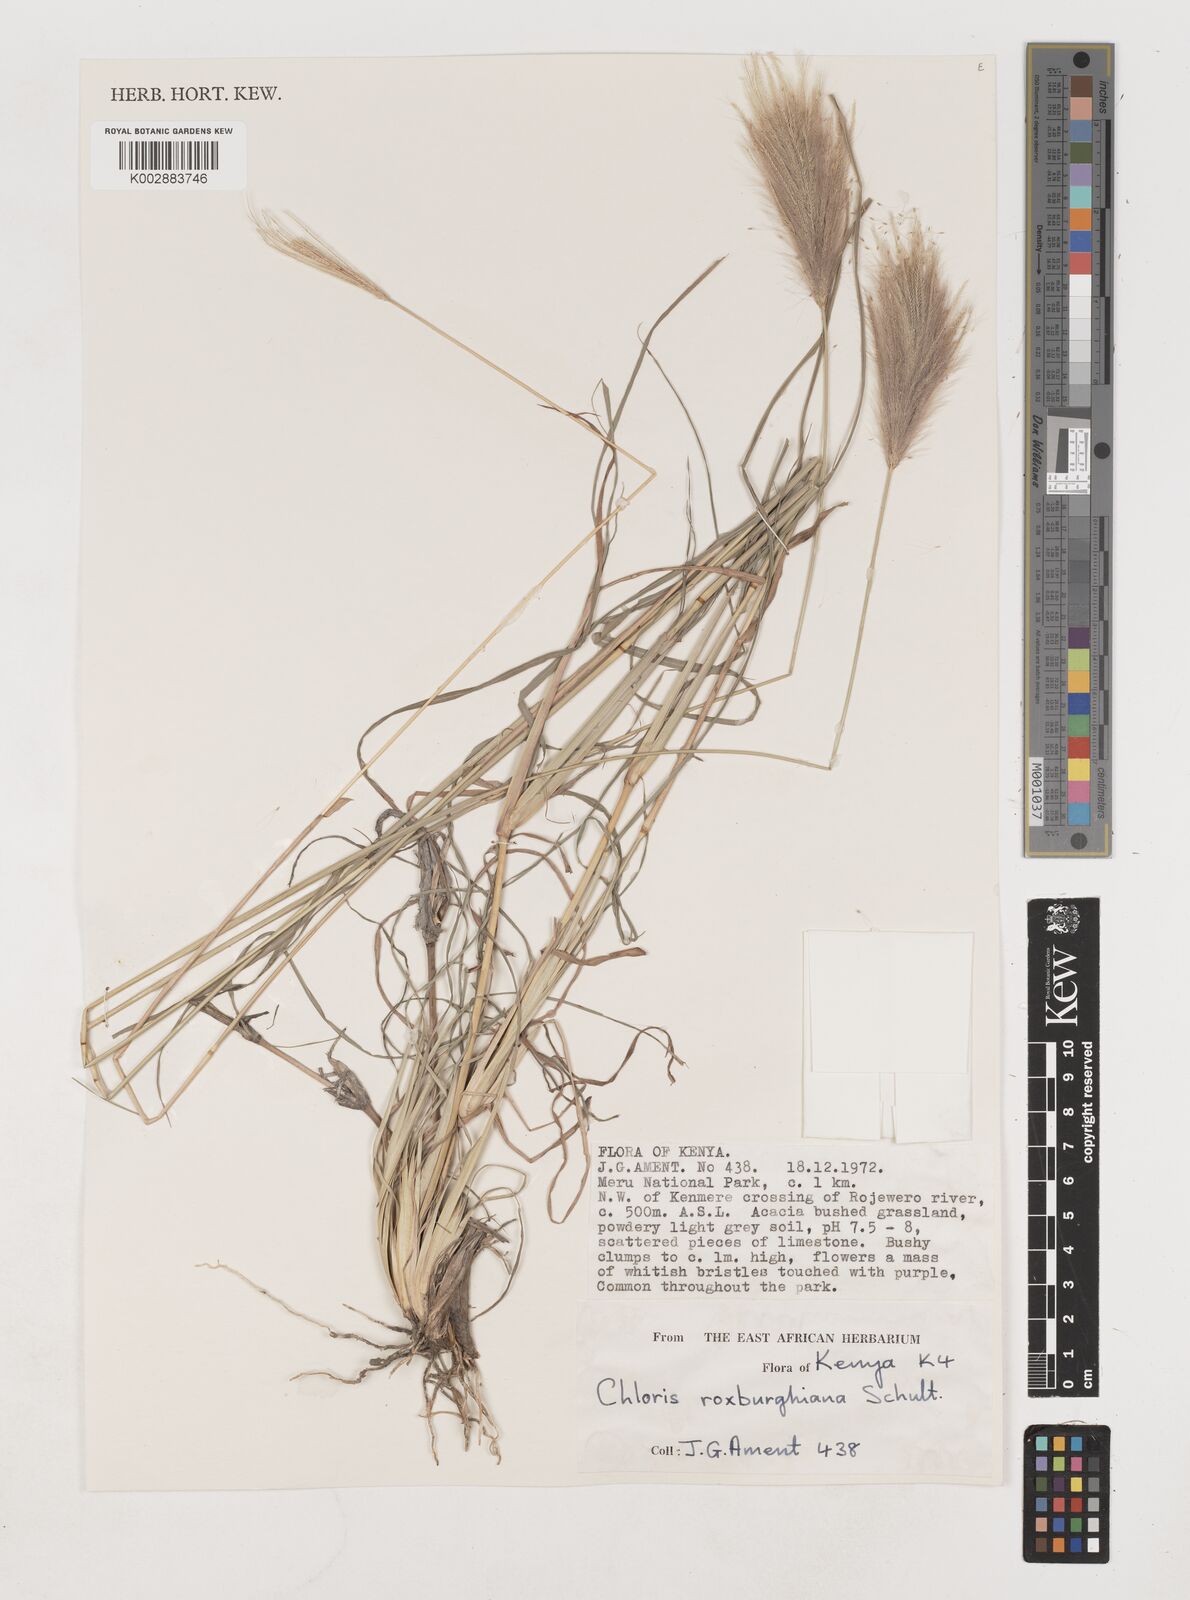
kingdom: Plantae
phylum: Tracheophyta
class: Liliopsida
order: Poales
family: Poaceae
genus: Tetrapogon
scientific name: Tetrapogon roxburghiana
